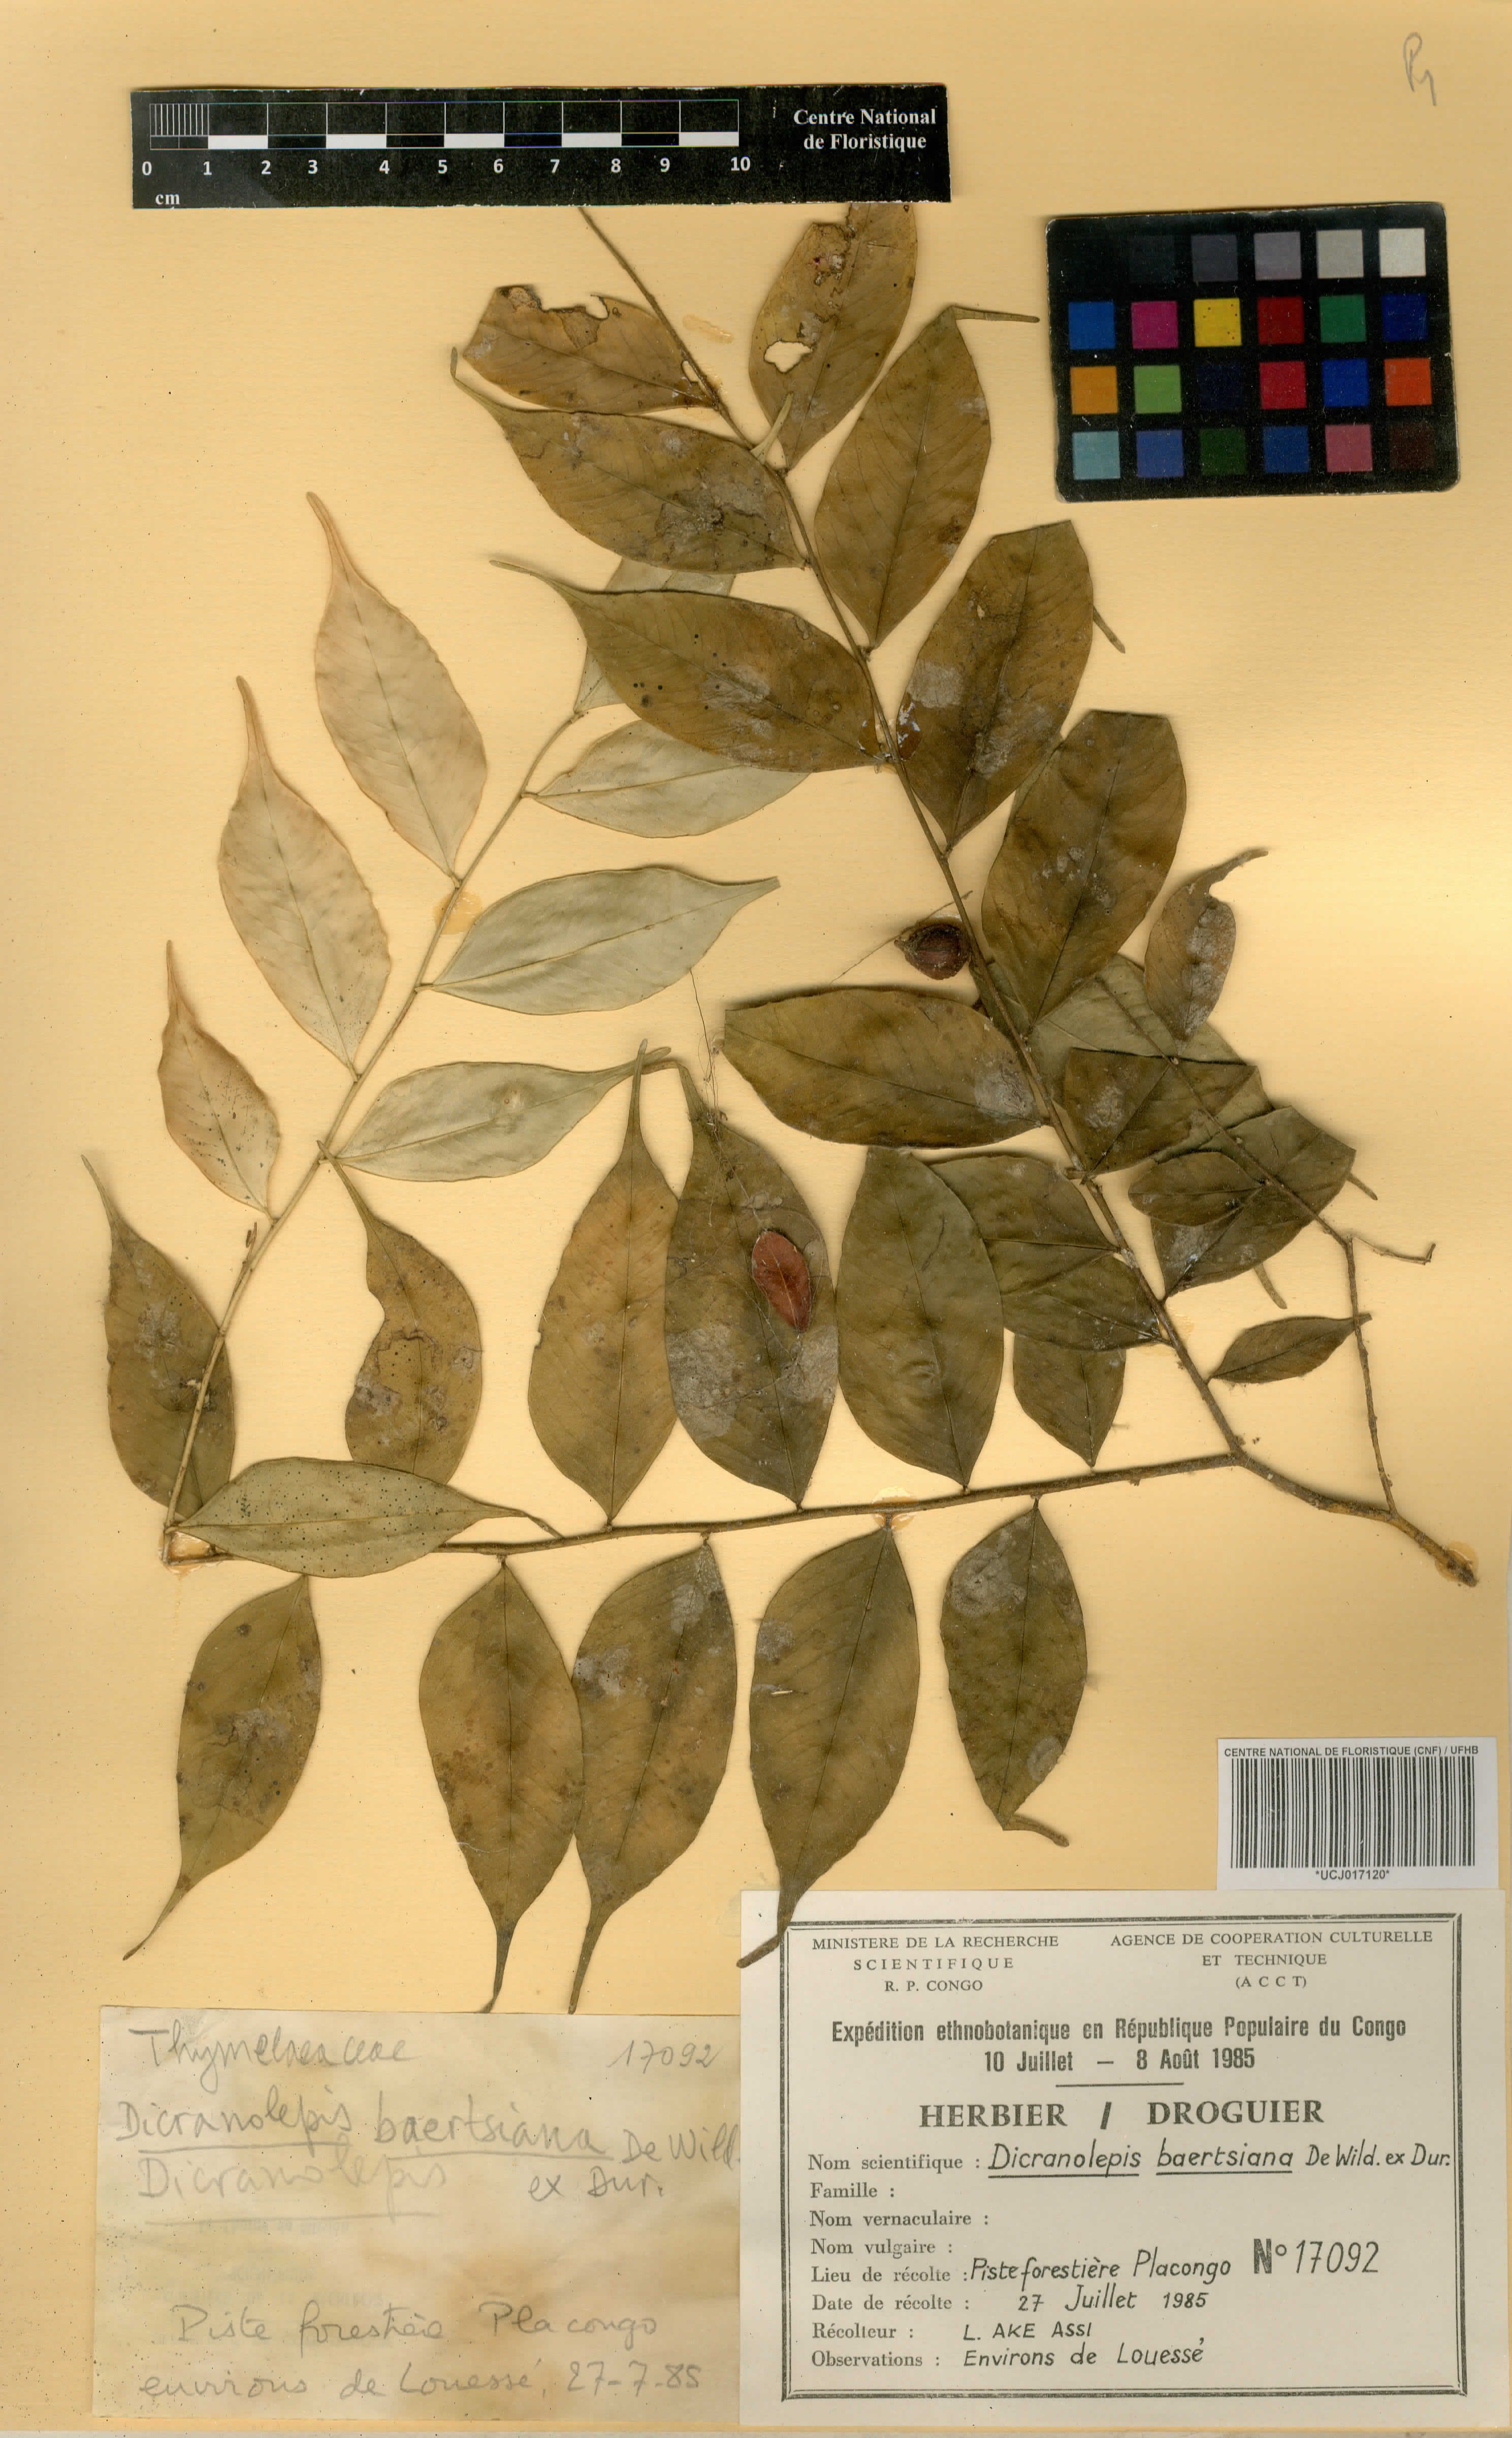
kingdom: Plantae
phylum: Tracheophyta
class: Magnoliopsida
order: Malvales
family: Thymelaeaceae
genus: Dicranolepis
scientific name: Dicranolepis baertsiana
